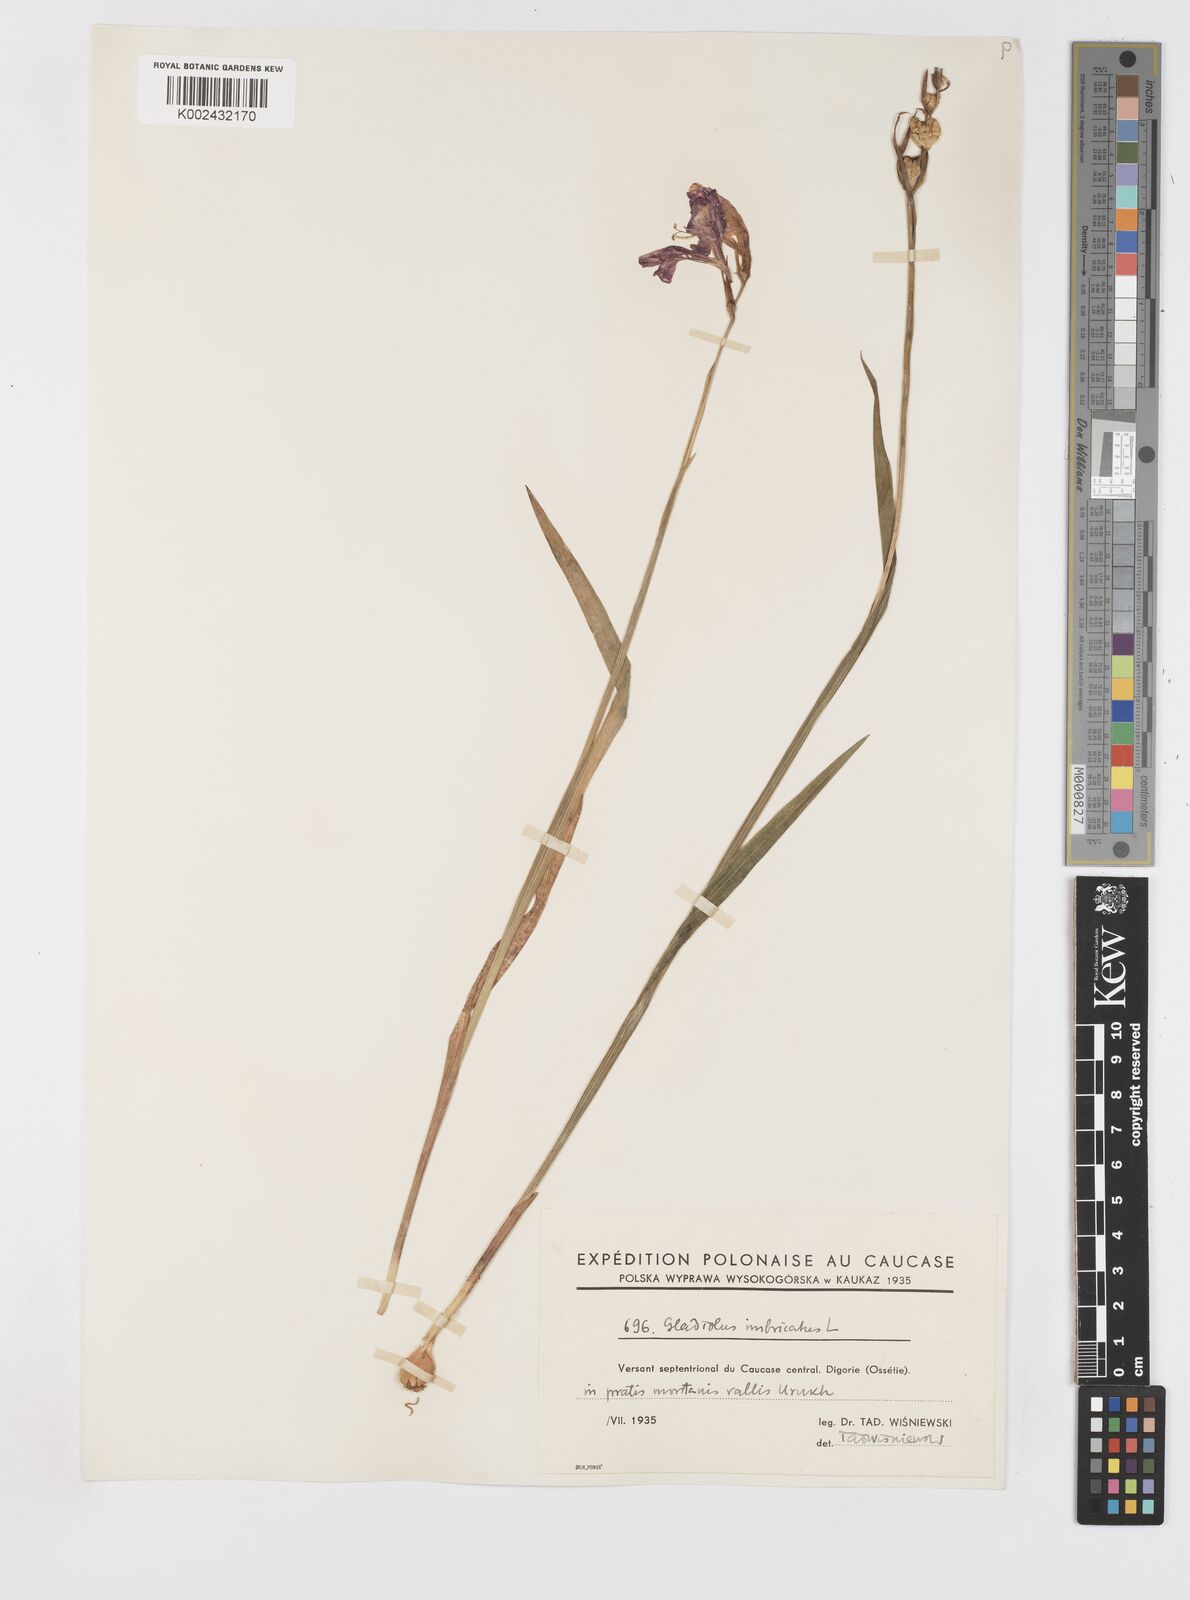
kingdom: Plantae
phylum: Tracheophyta
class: Liliopsida
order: Asparagales
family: Iridaceae
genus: Gladiolus
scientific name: Gladiolus imbricatus
